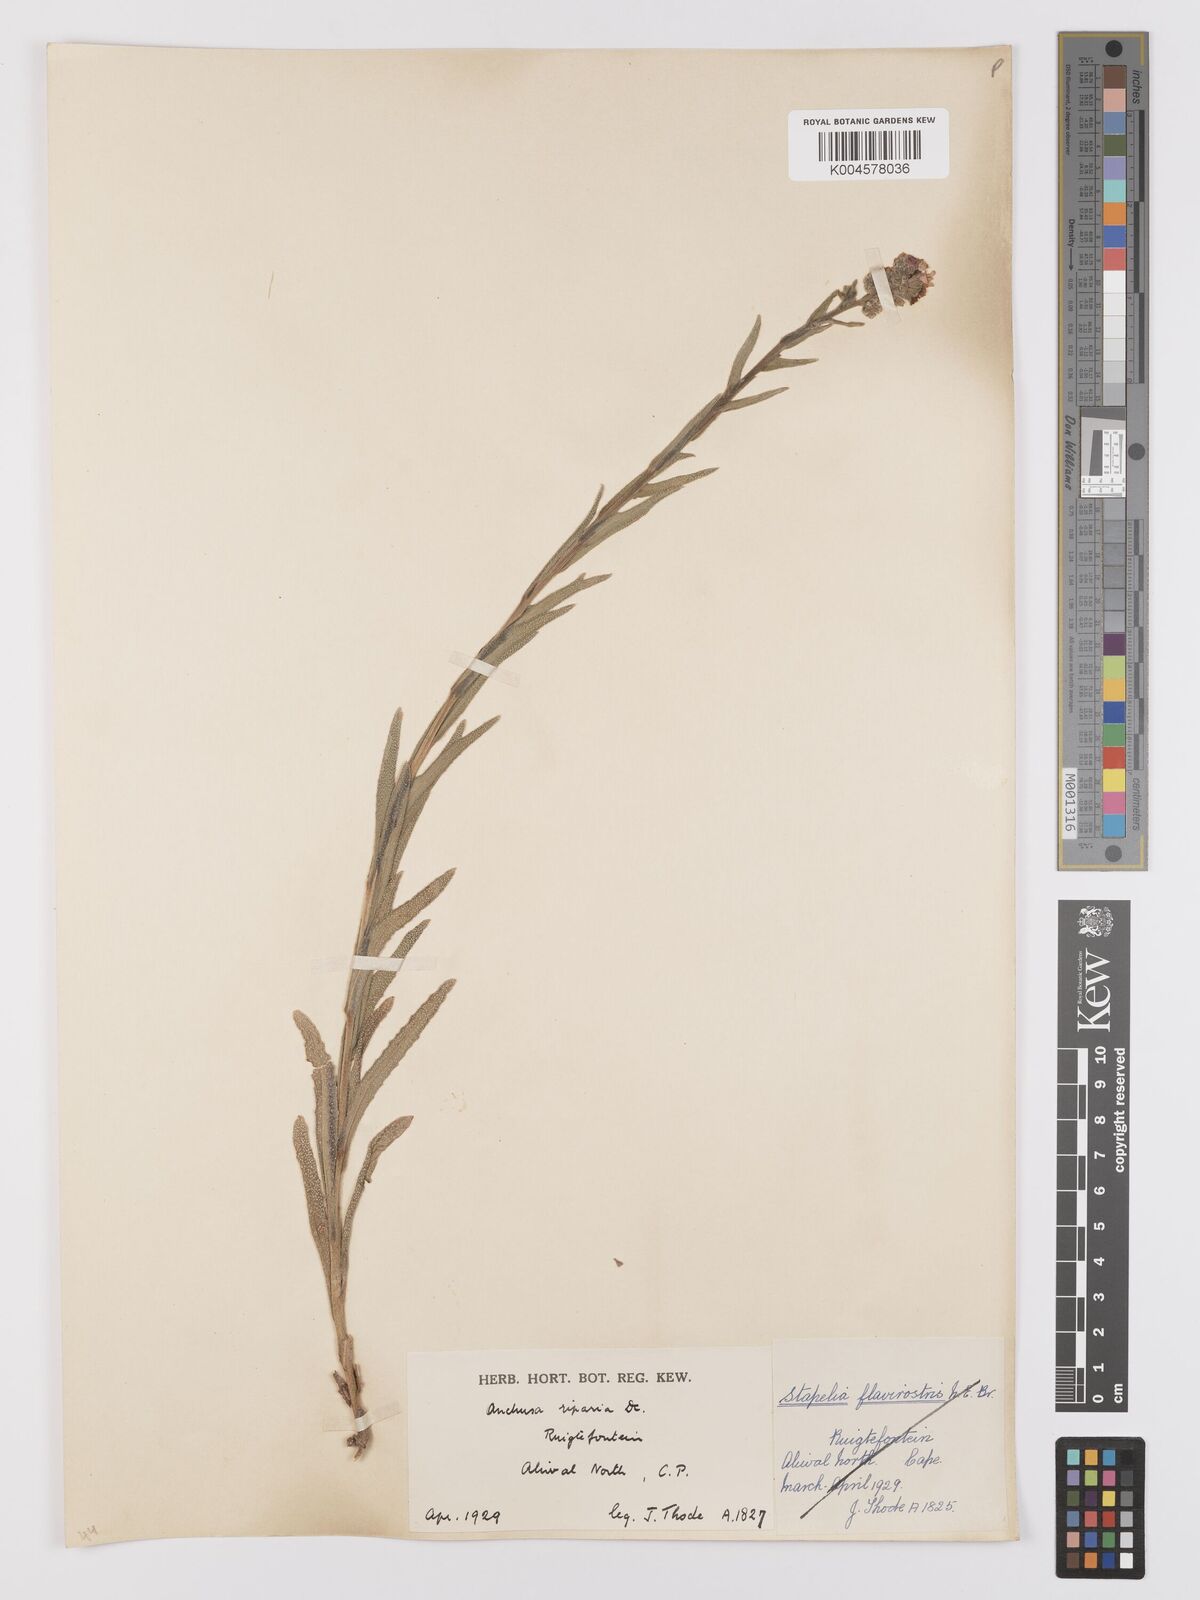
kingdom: Plantae
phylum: Tracheophyta
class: Magnoliopsida
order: Boraginales
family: Boraginaceae
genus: Anchusa
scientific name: Anchusa capensis
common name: Cape bugloss
